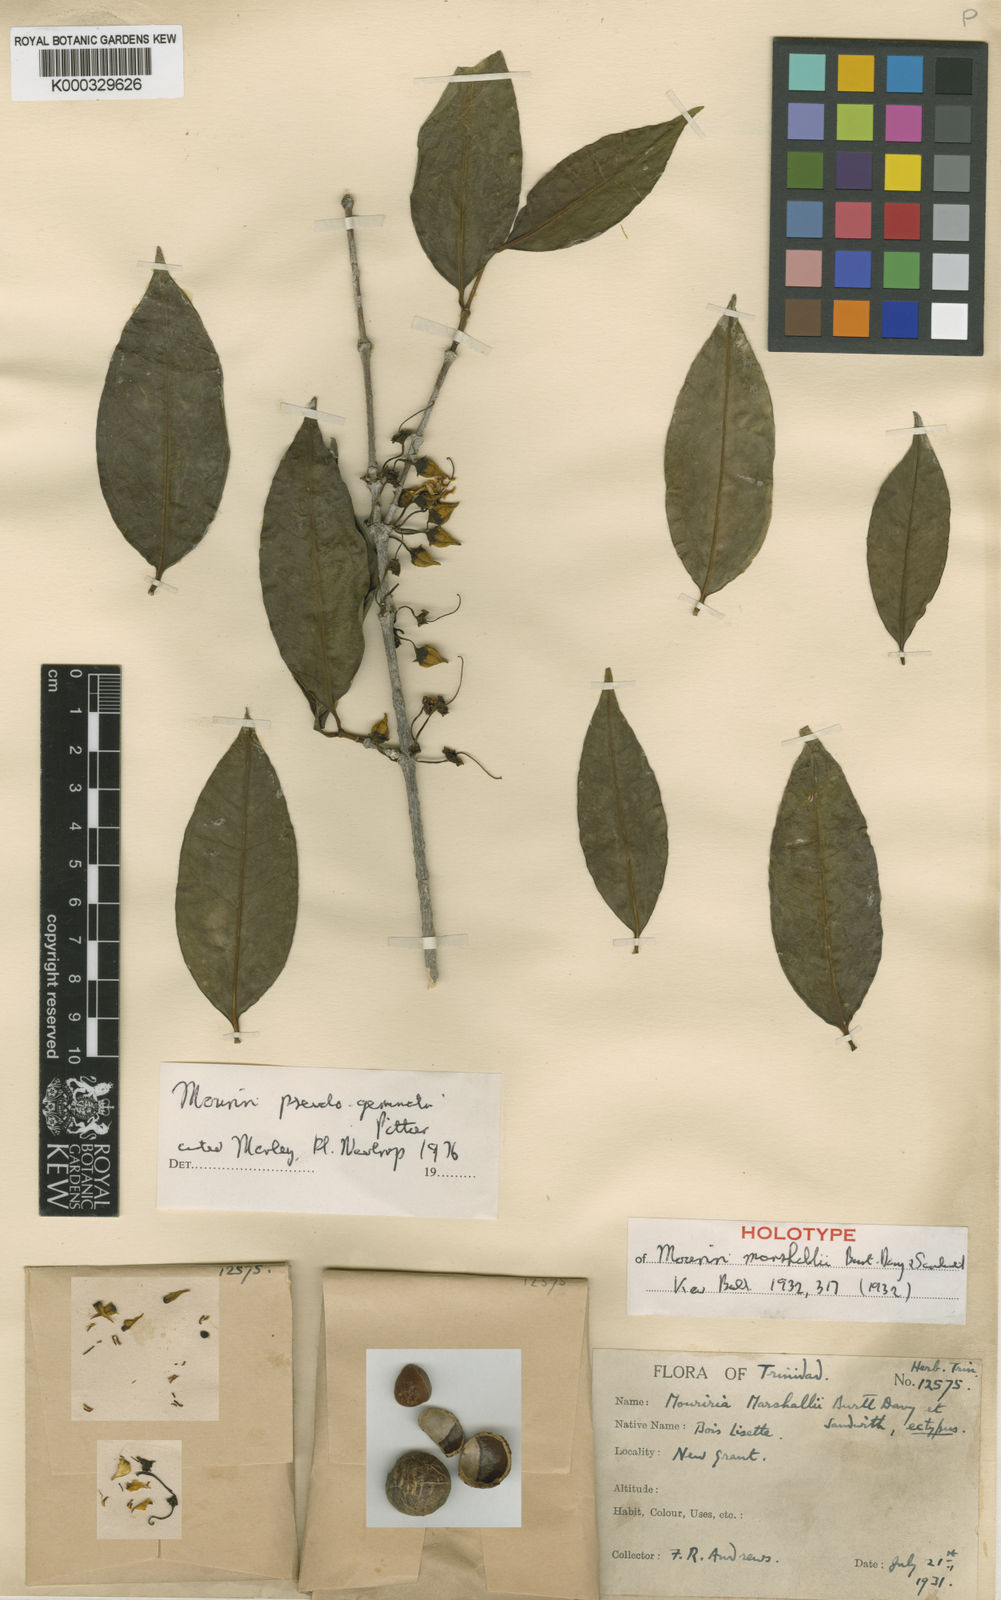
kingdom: Plantae
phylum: Tracheophyta
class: Magnoliopsida
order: Myrtales
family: Melastomataceae
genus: Mouriri
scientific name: Mouriri pseudogeminata
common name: Guaremales mouriri
